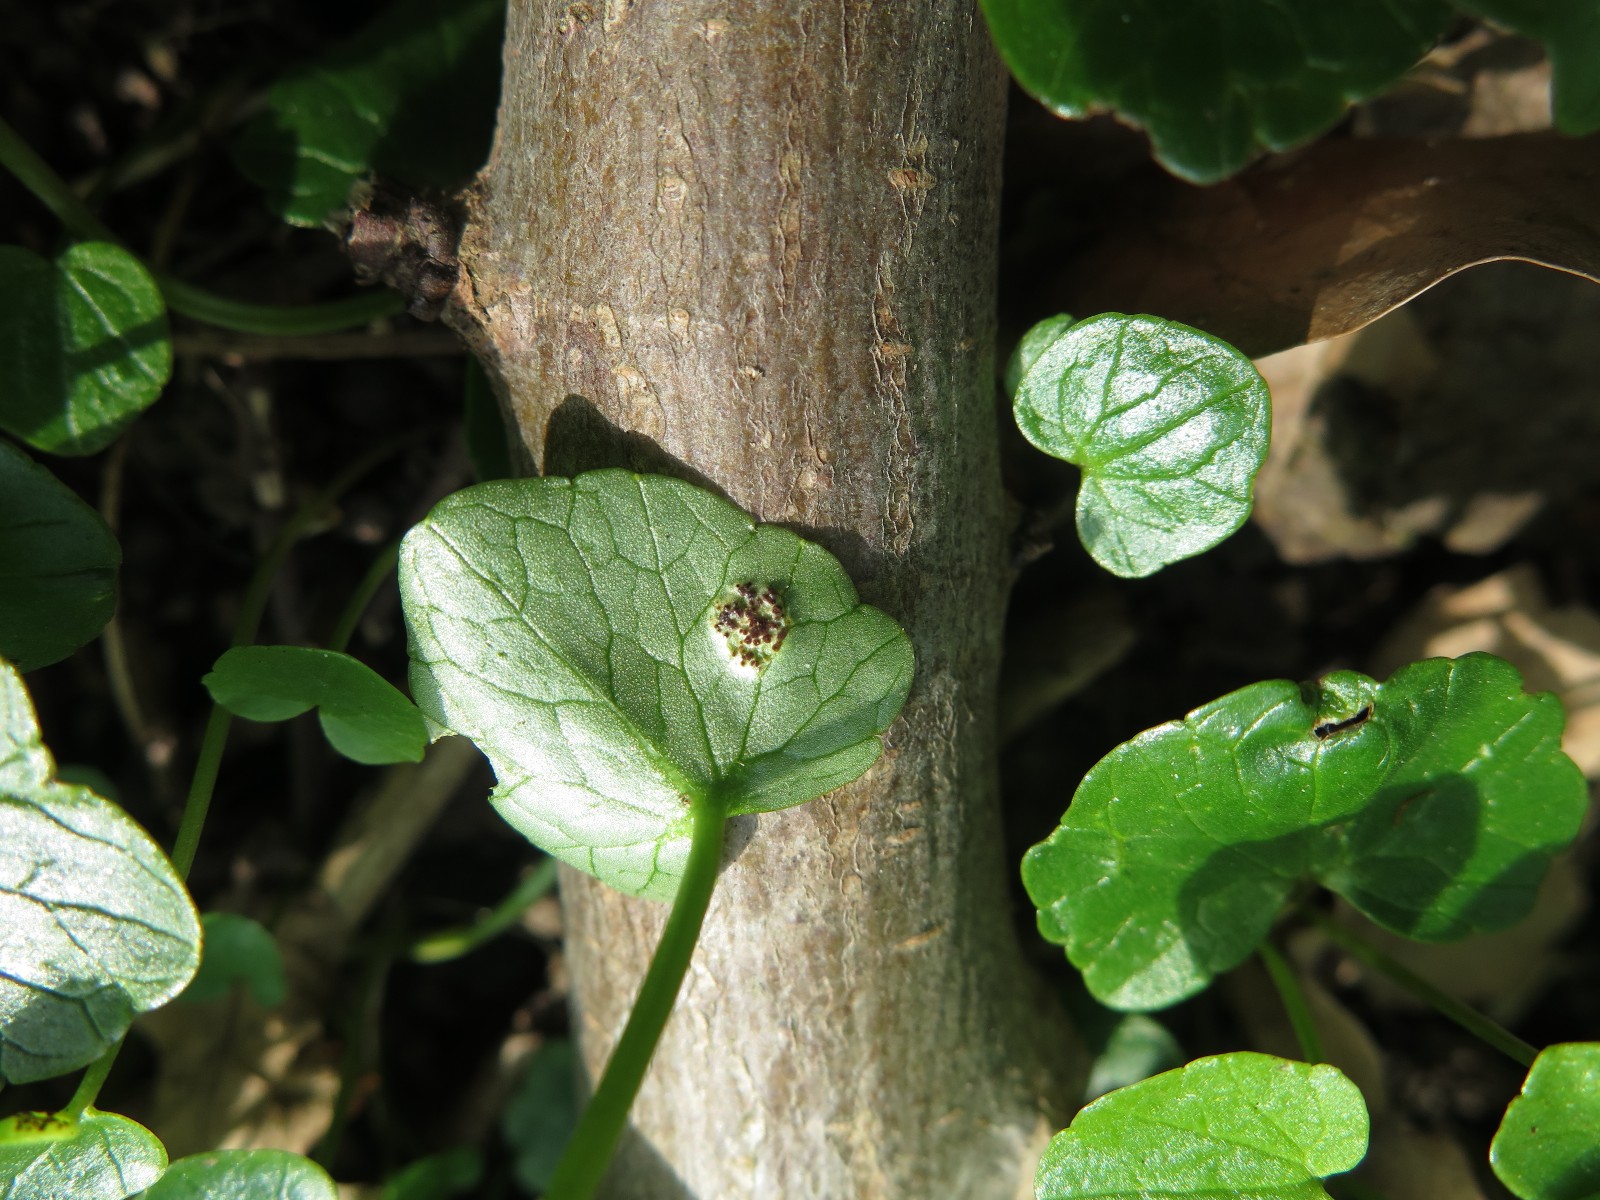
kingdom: Fungi
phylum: Basidiomycota
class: Pucciniomycetes
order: Pucciniales
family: Pucciniaceae
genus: Uromyces
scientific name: Uromyces ficariae
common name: vorterod-encellerust
